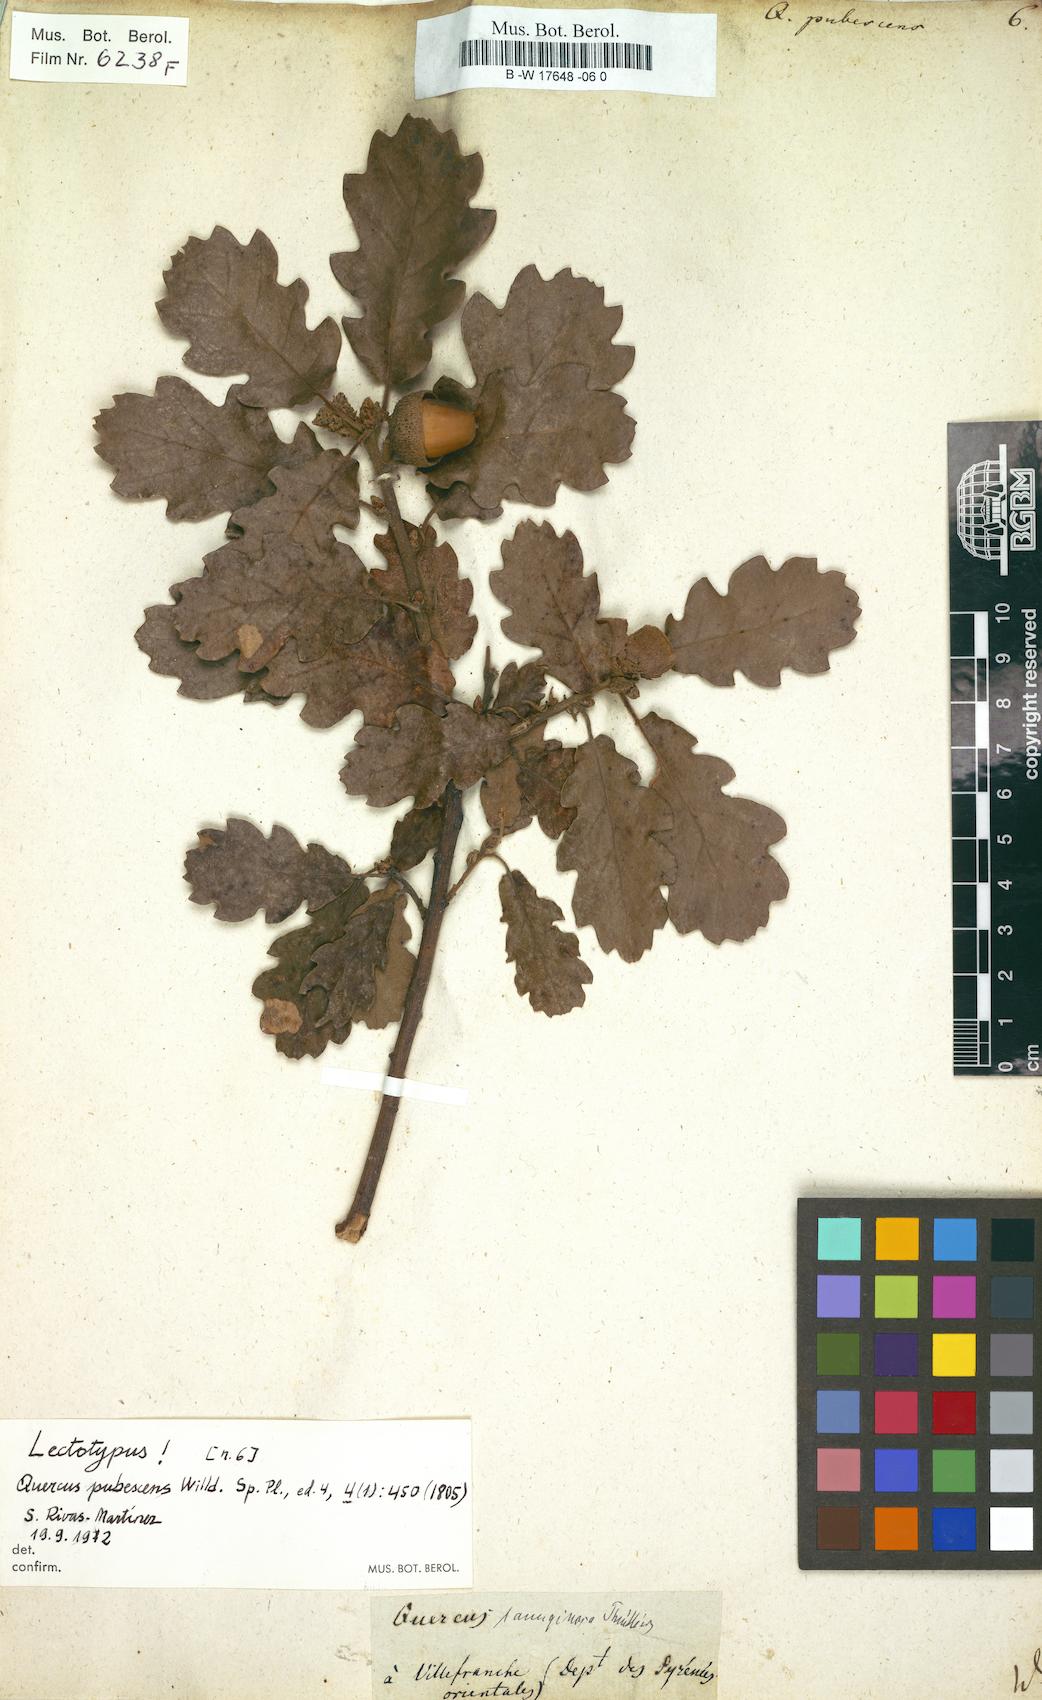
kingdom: Plantae
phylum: Tracheophyta
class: Magnoliopsida
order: Fagales
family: Fagaceae
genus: Quercus
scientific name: Quercus pubescens
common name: Downy oak
